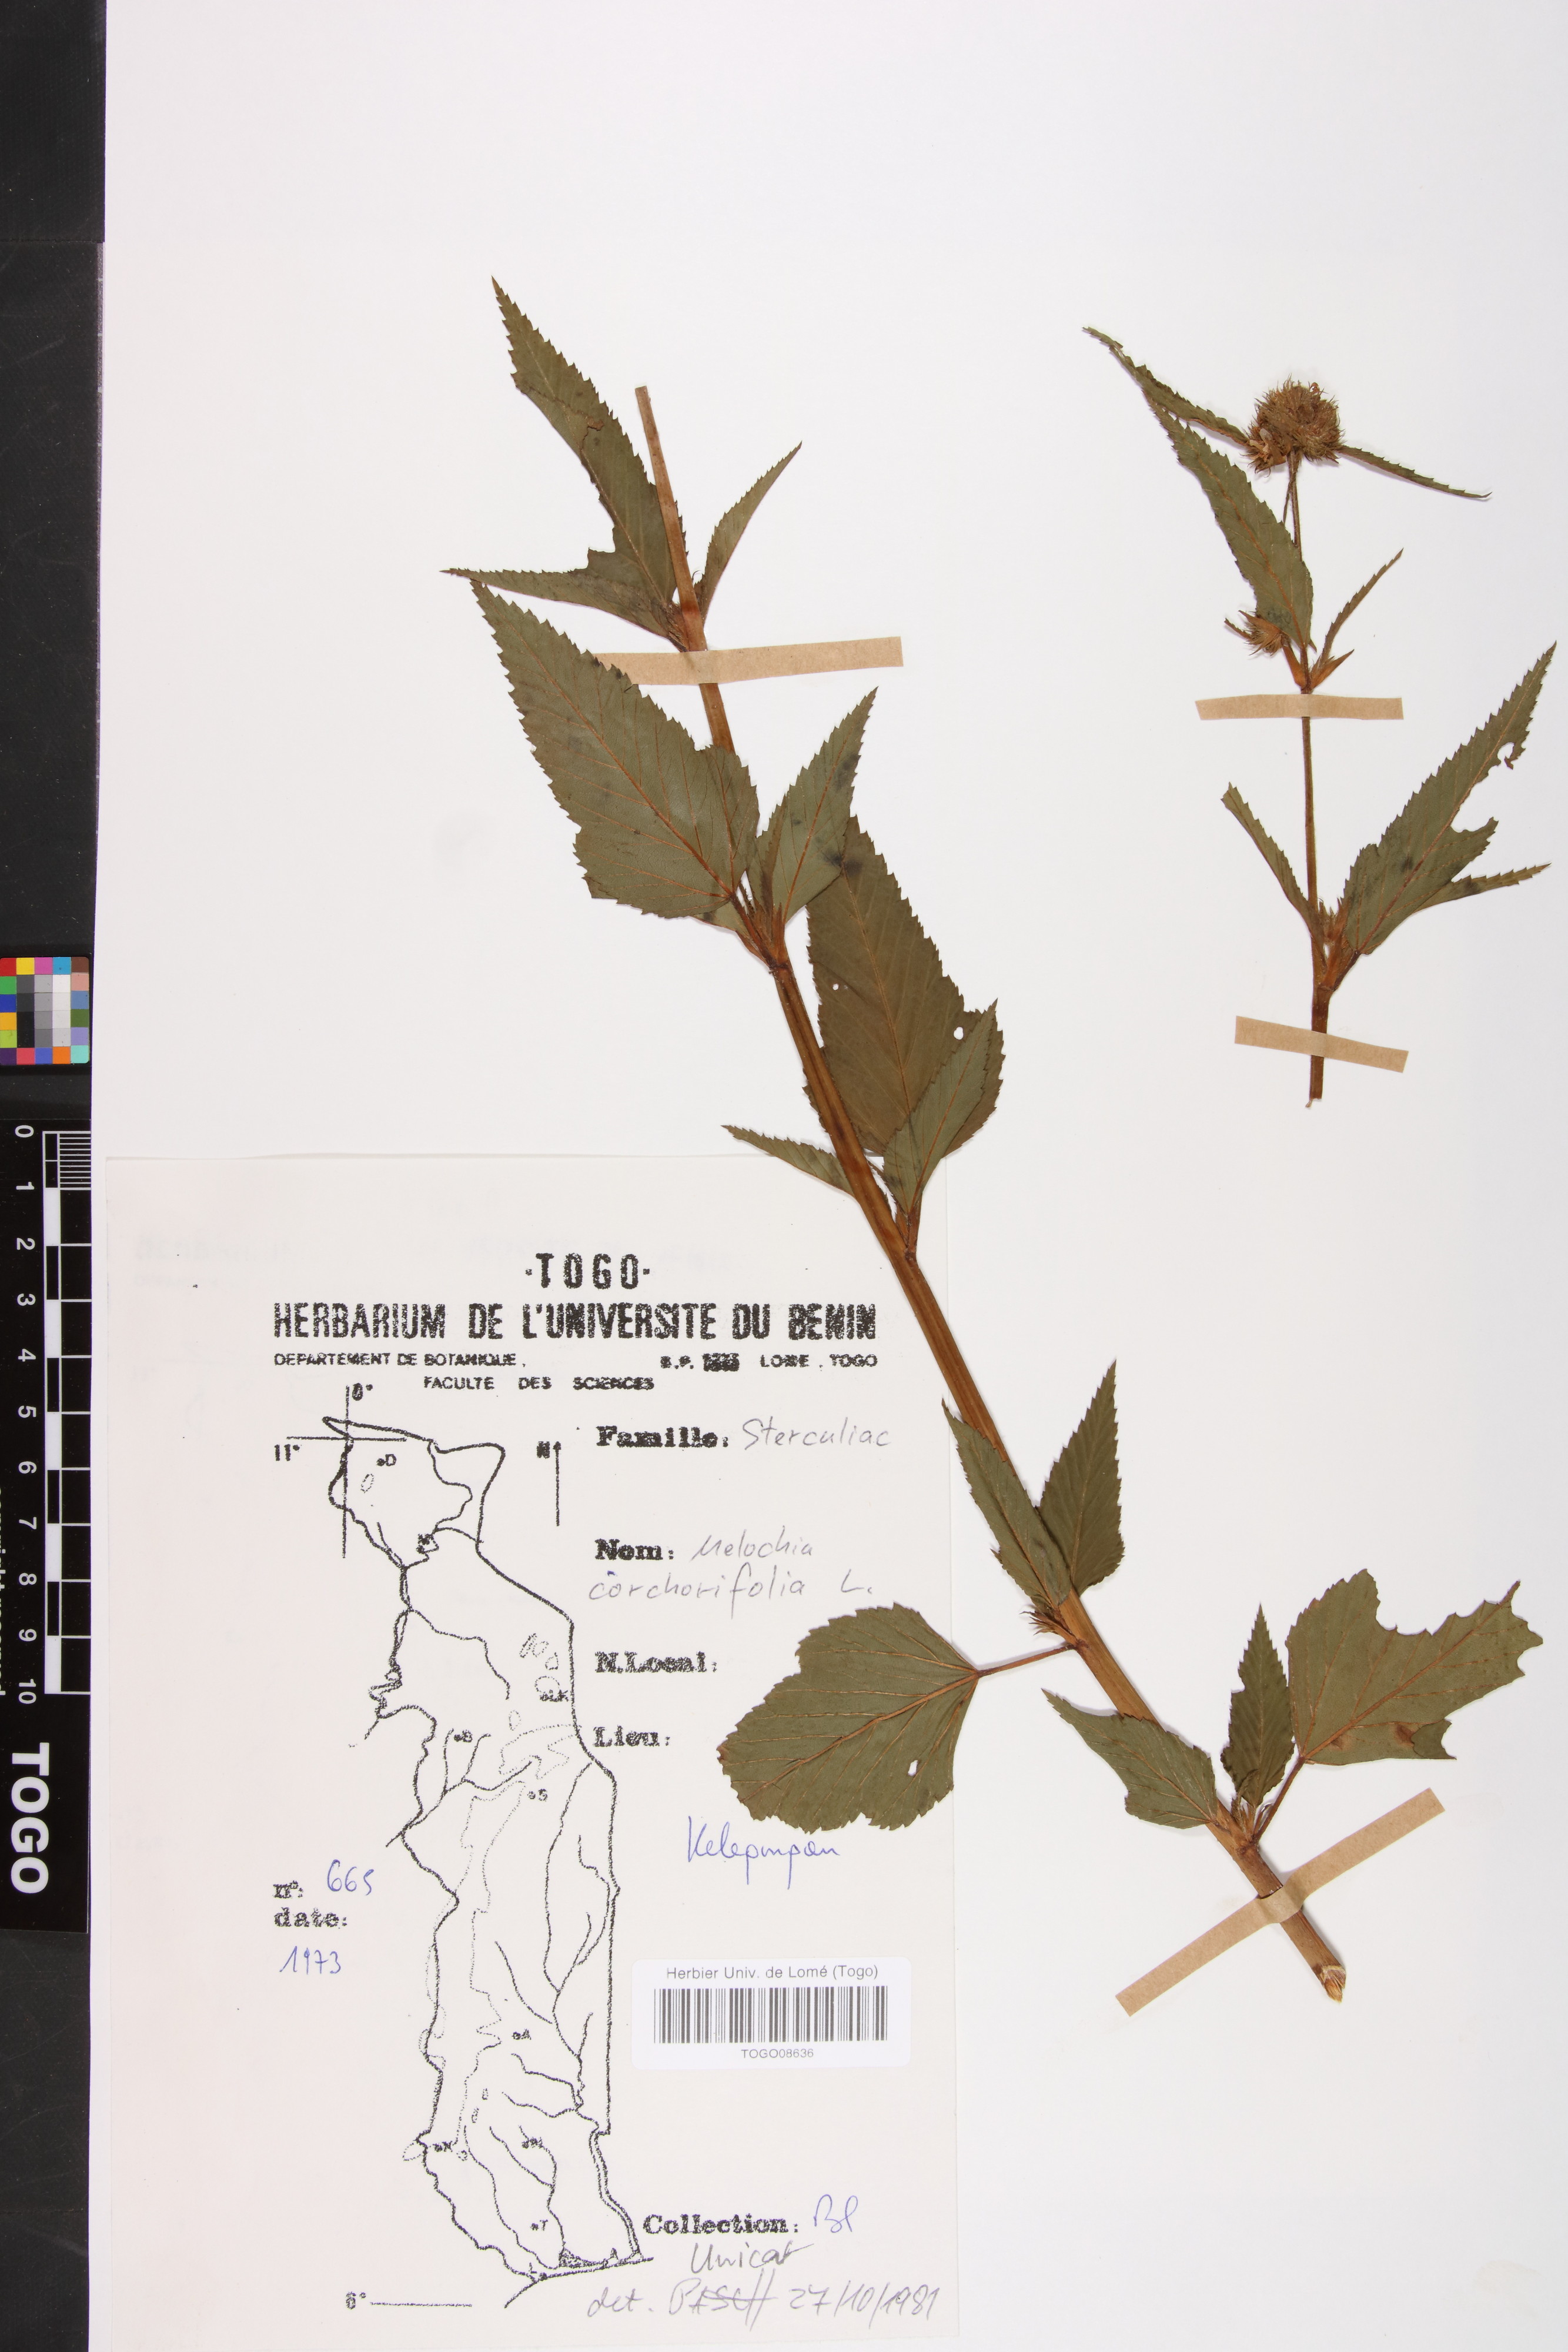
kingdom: Plantae
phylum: Tracheophyta
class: Magnoliopsida
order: Malvales
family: Malvaceae
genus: Melochia
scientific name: Melochia corchorifolia
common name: Chocolateweed
